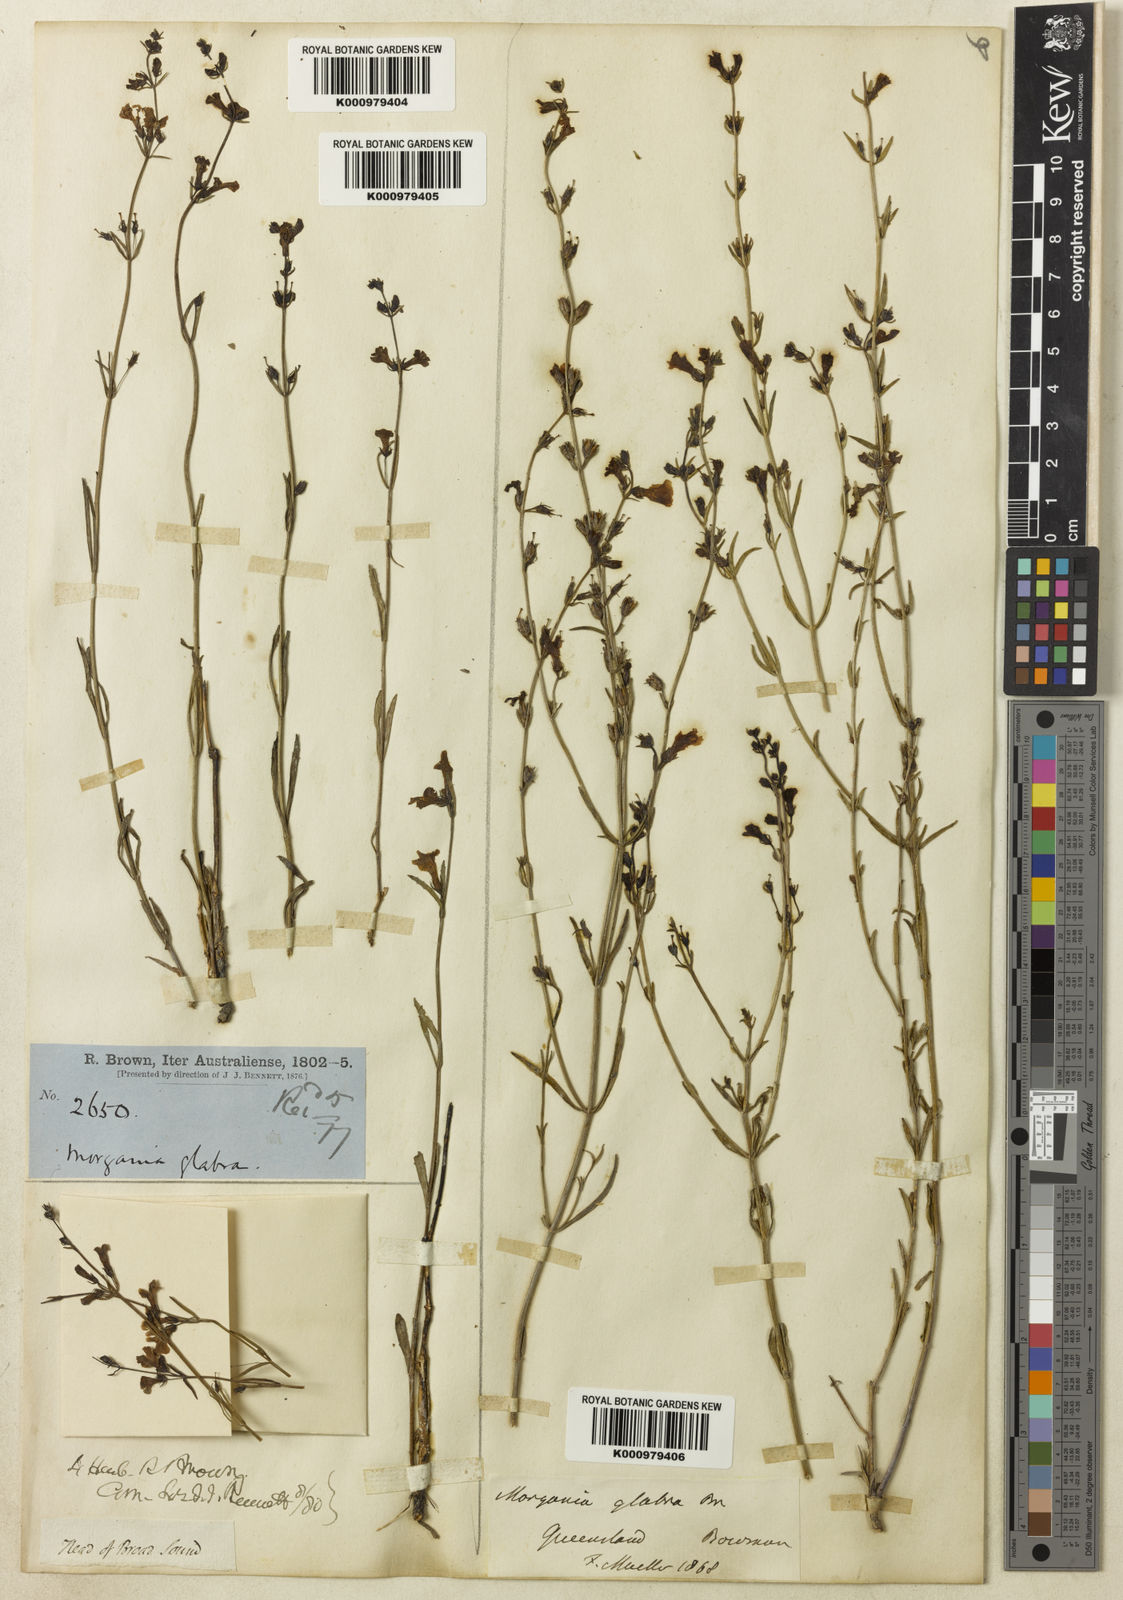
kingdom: Plantae
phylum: Tracheophyta
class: Magnoliopsida
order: Lamiales
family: Plantaginaceae
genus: Stemodia
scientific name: Stemodia glabella
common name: Smooth bluerod
